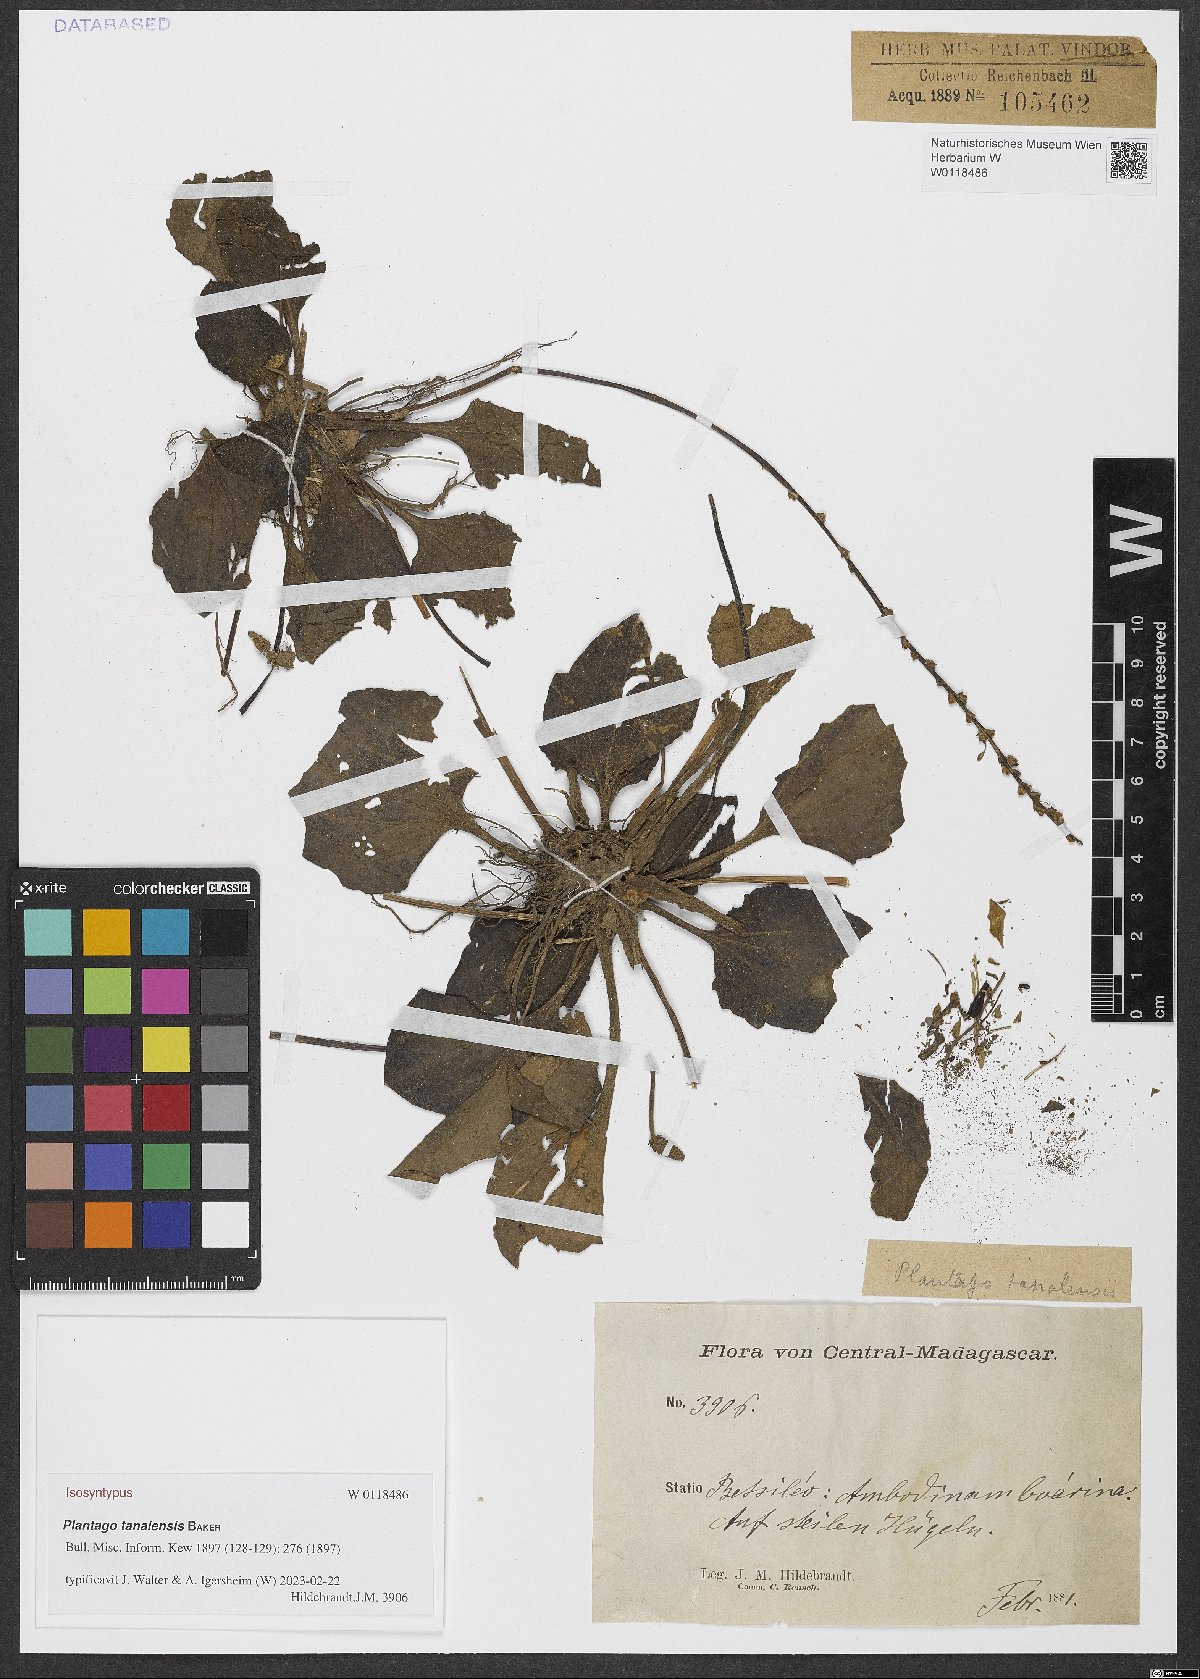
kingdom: Plantae
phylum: Tracheophyta
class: Magnoliopsida
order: Lamiales
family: Plantaginaceae
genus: Plantago
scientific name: Plantago tanalensis
